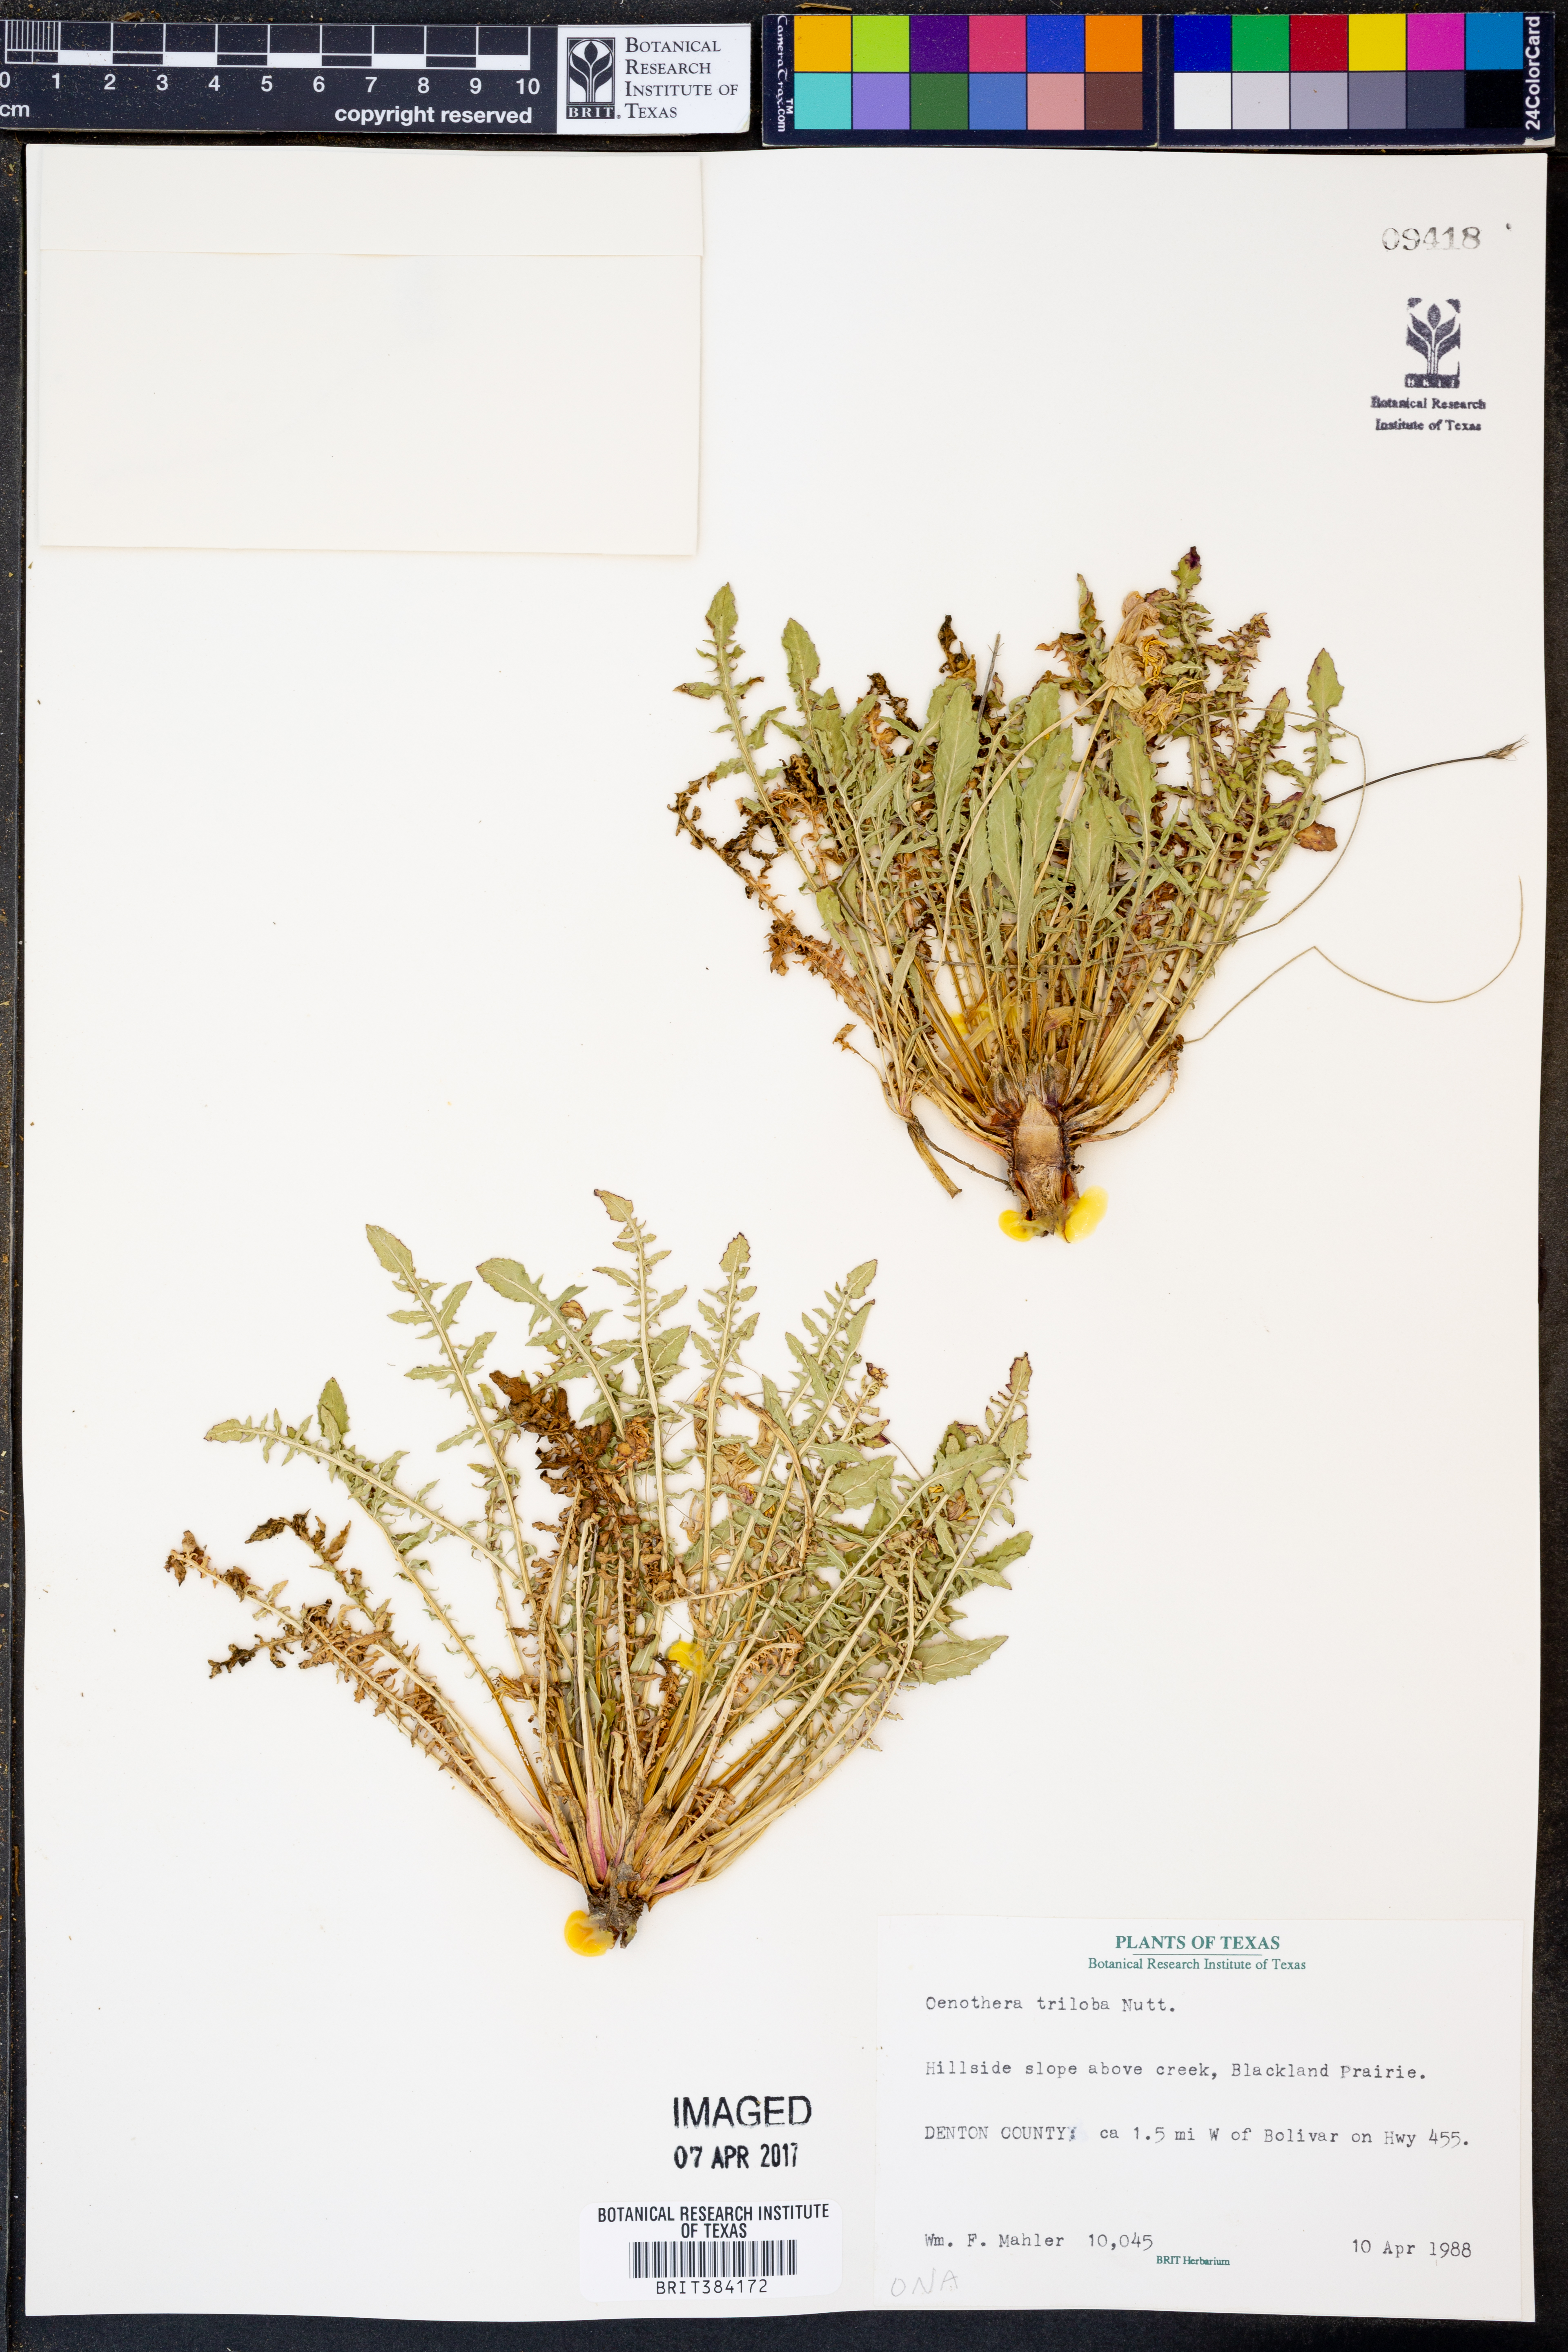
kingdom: Plantae
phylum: Tracheophyta
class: Magnoliopsida
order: Myrtales
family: Onagraceae
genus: Oenothera
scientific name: Oenothera triloba
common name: Sessile evening-primrose
